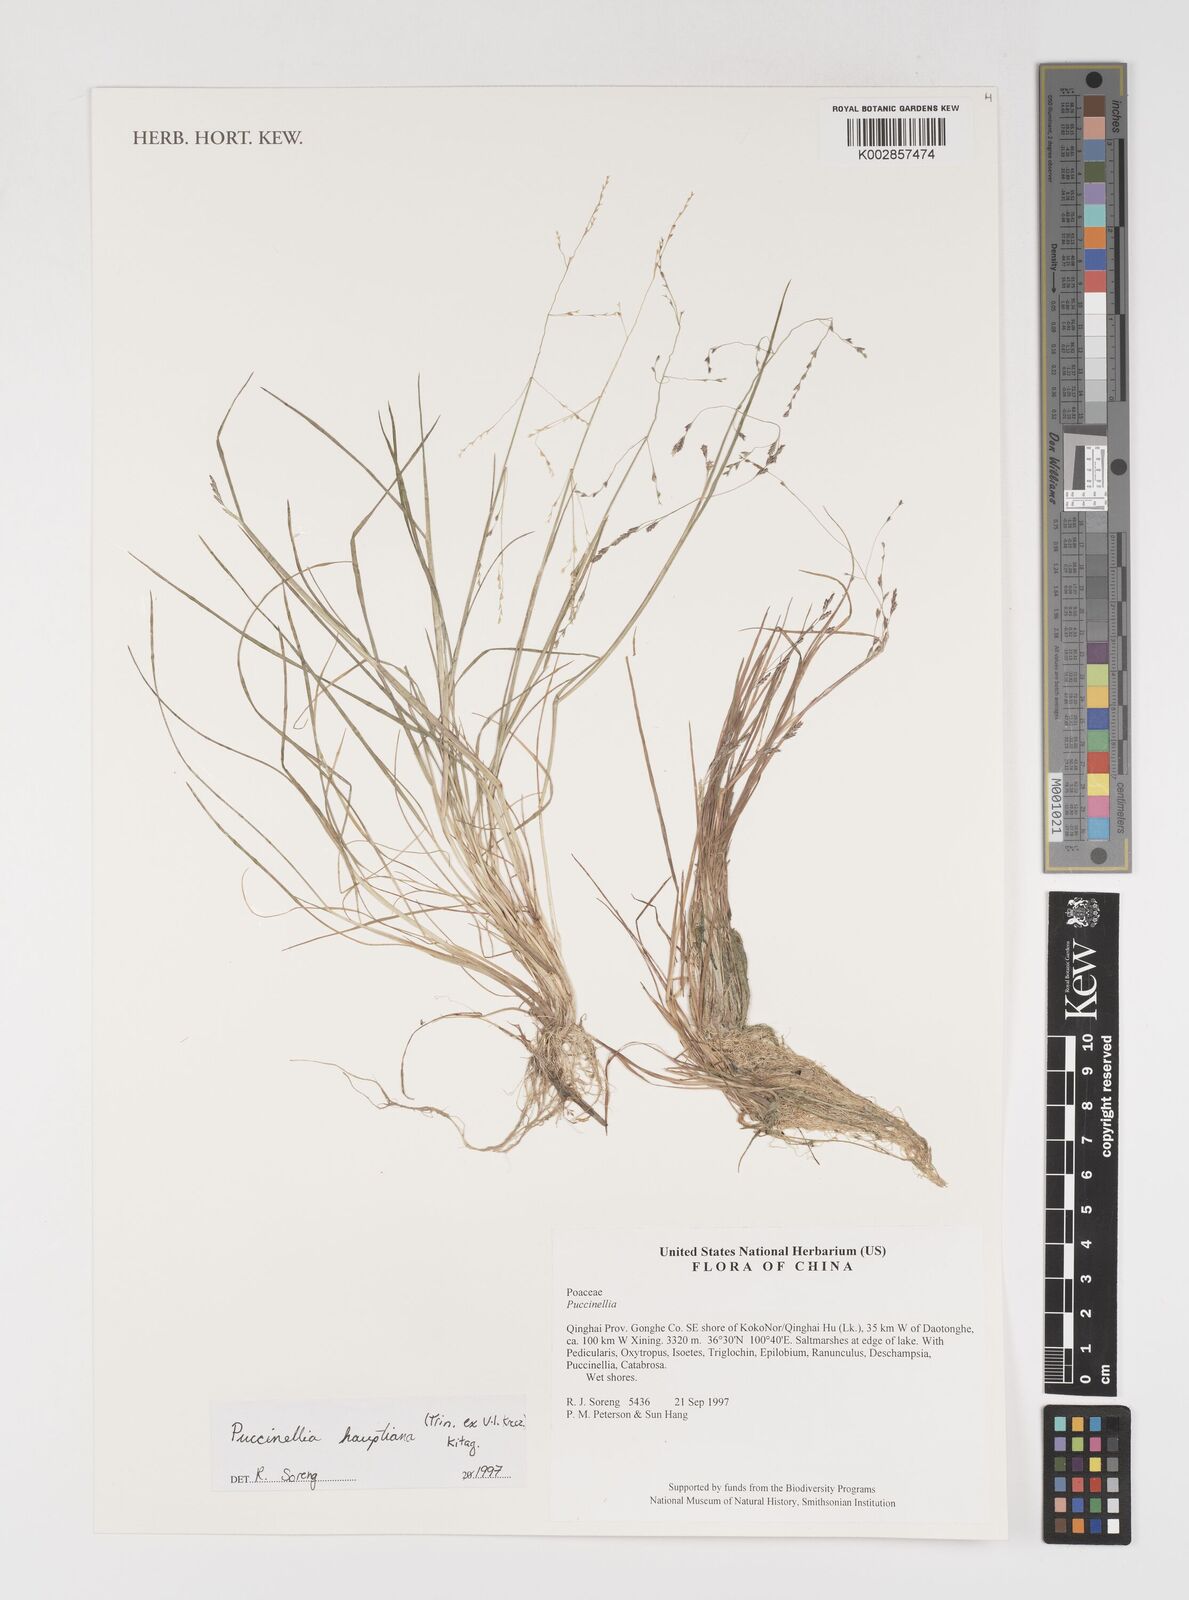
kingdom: Plantae
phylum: Tracheophyta
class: Liliopsida
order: Poales
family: Poaceae
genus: Puccinellia
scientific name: Puccinellia distans
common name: Weeping alkaligrass
